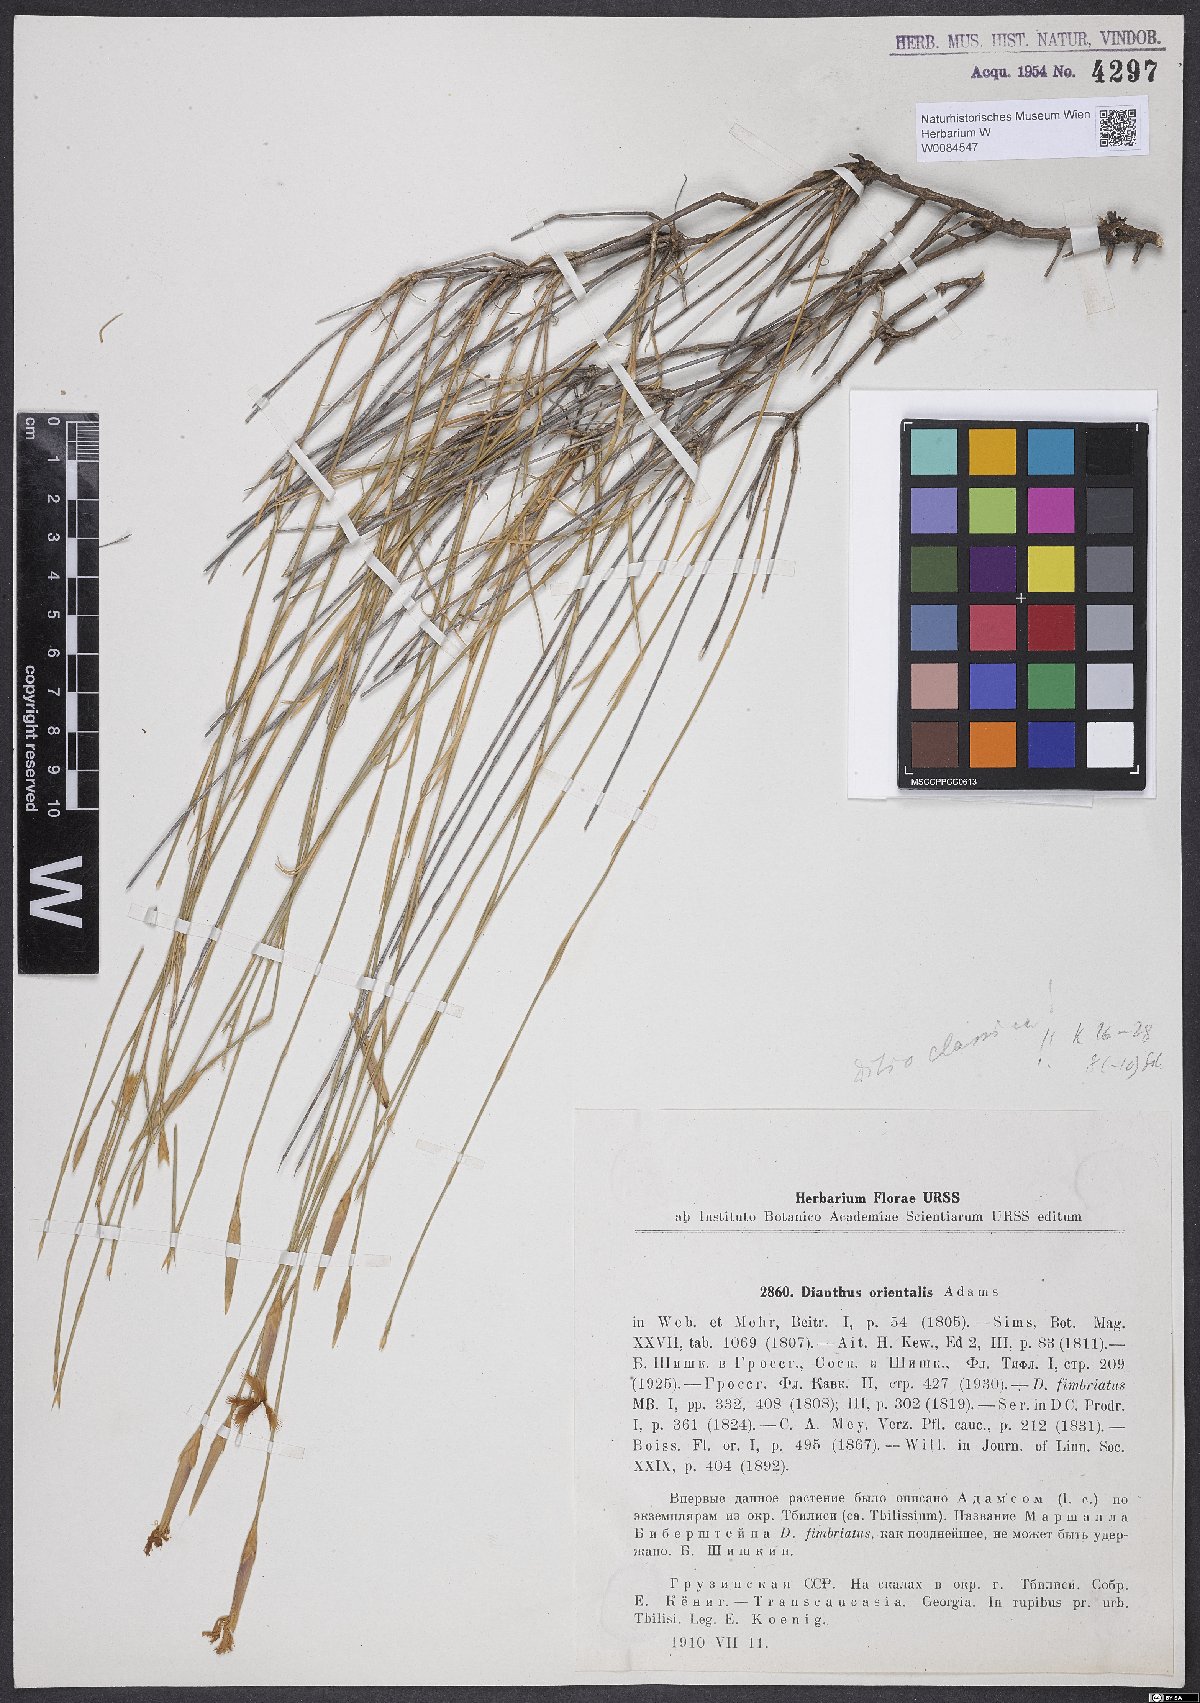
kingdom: Plantae
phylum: Tracheophyta
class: Magnoliopsida
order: Caryophyllales
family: Caryophyllaceae
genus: Dianthus
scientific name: Dianthus orientalis
